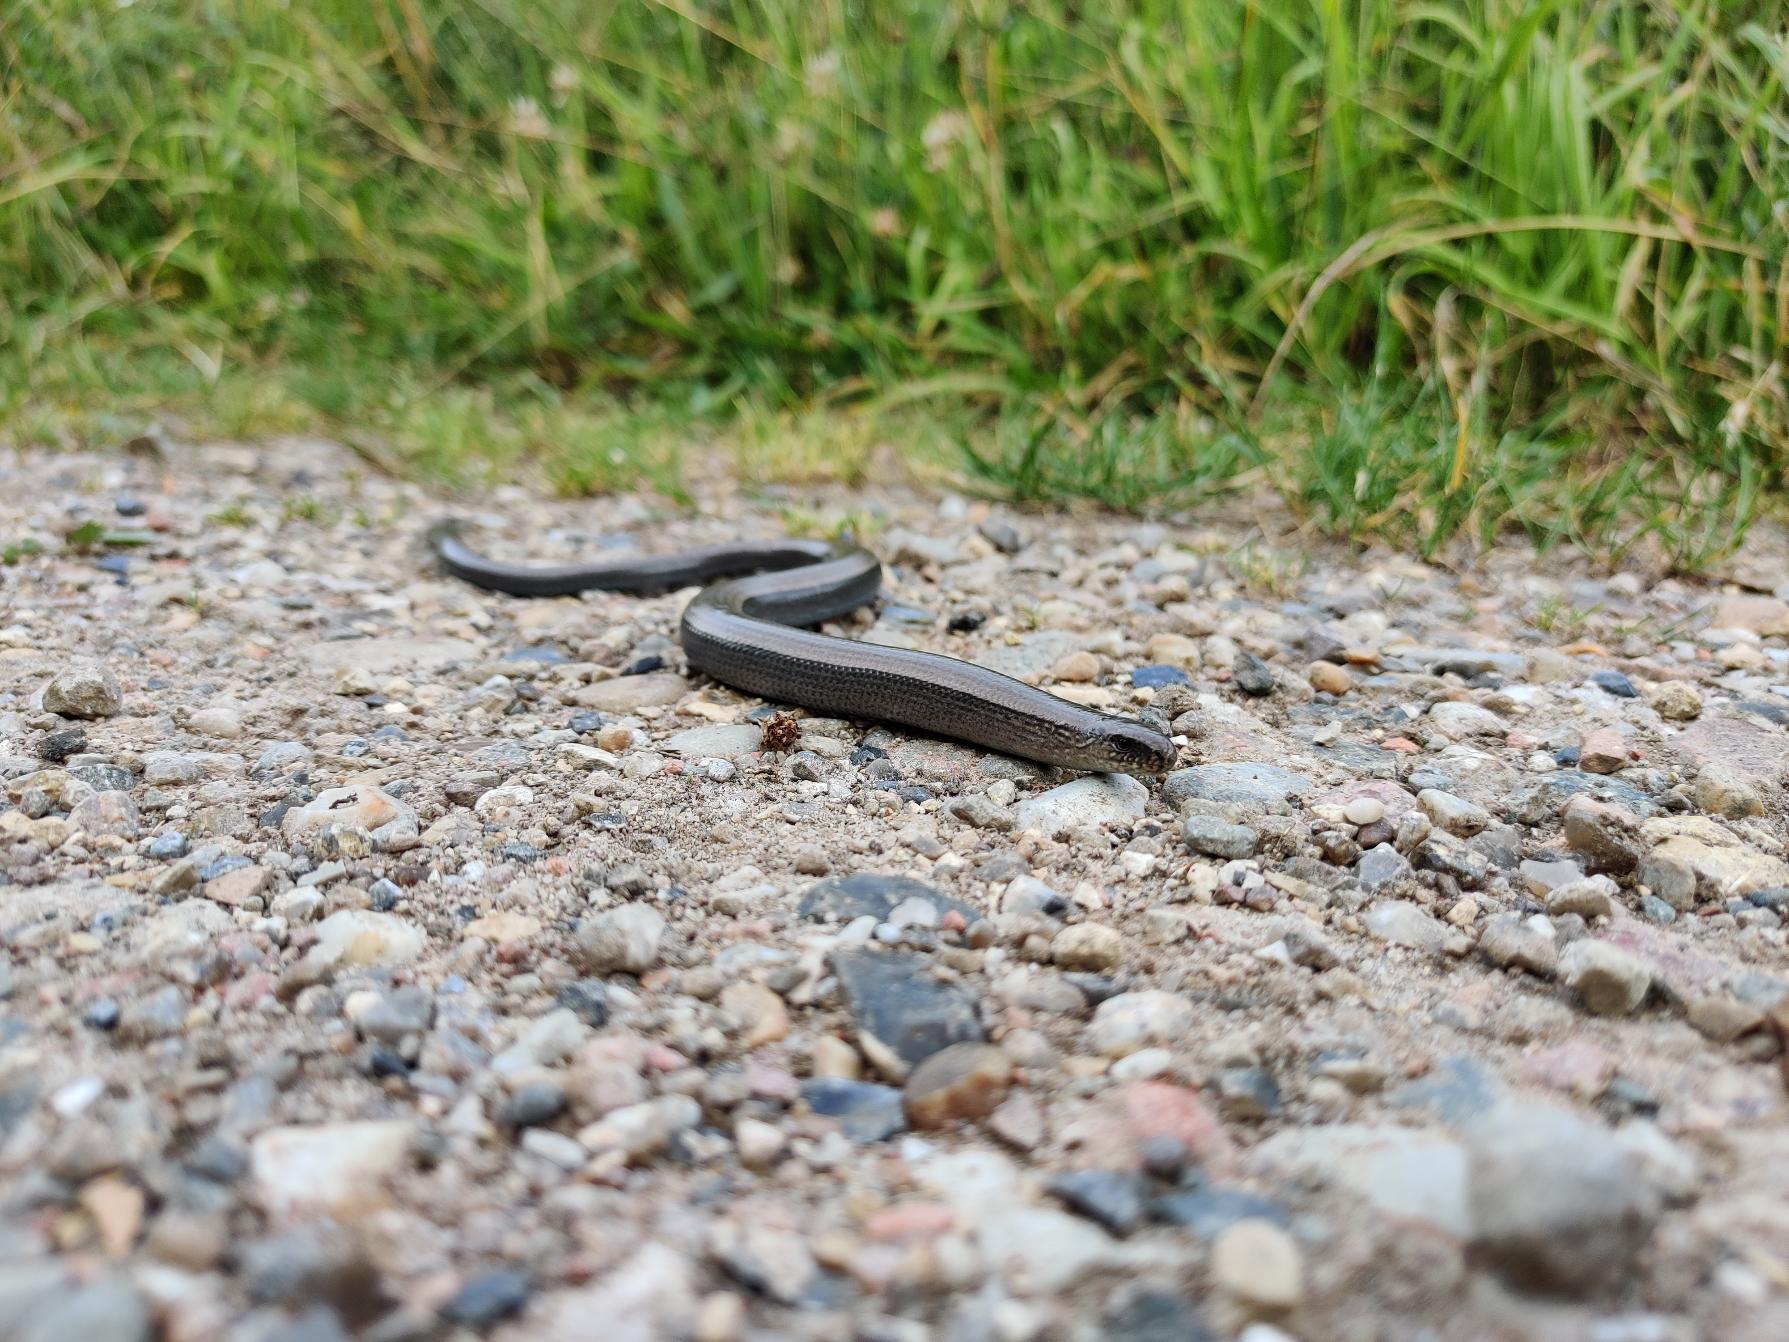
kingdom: Animalia
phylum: Chordata
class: Squamata
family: Anguidae
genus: Anguis
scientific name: Anguis fragilis
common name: Stålorm
